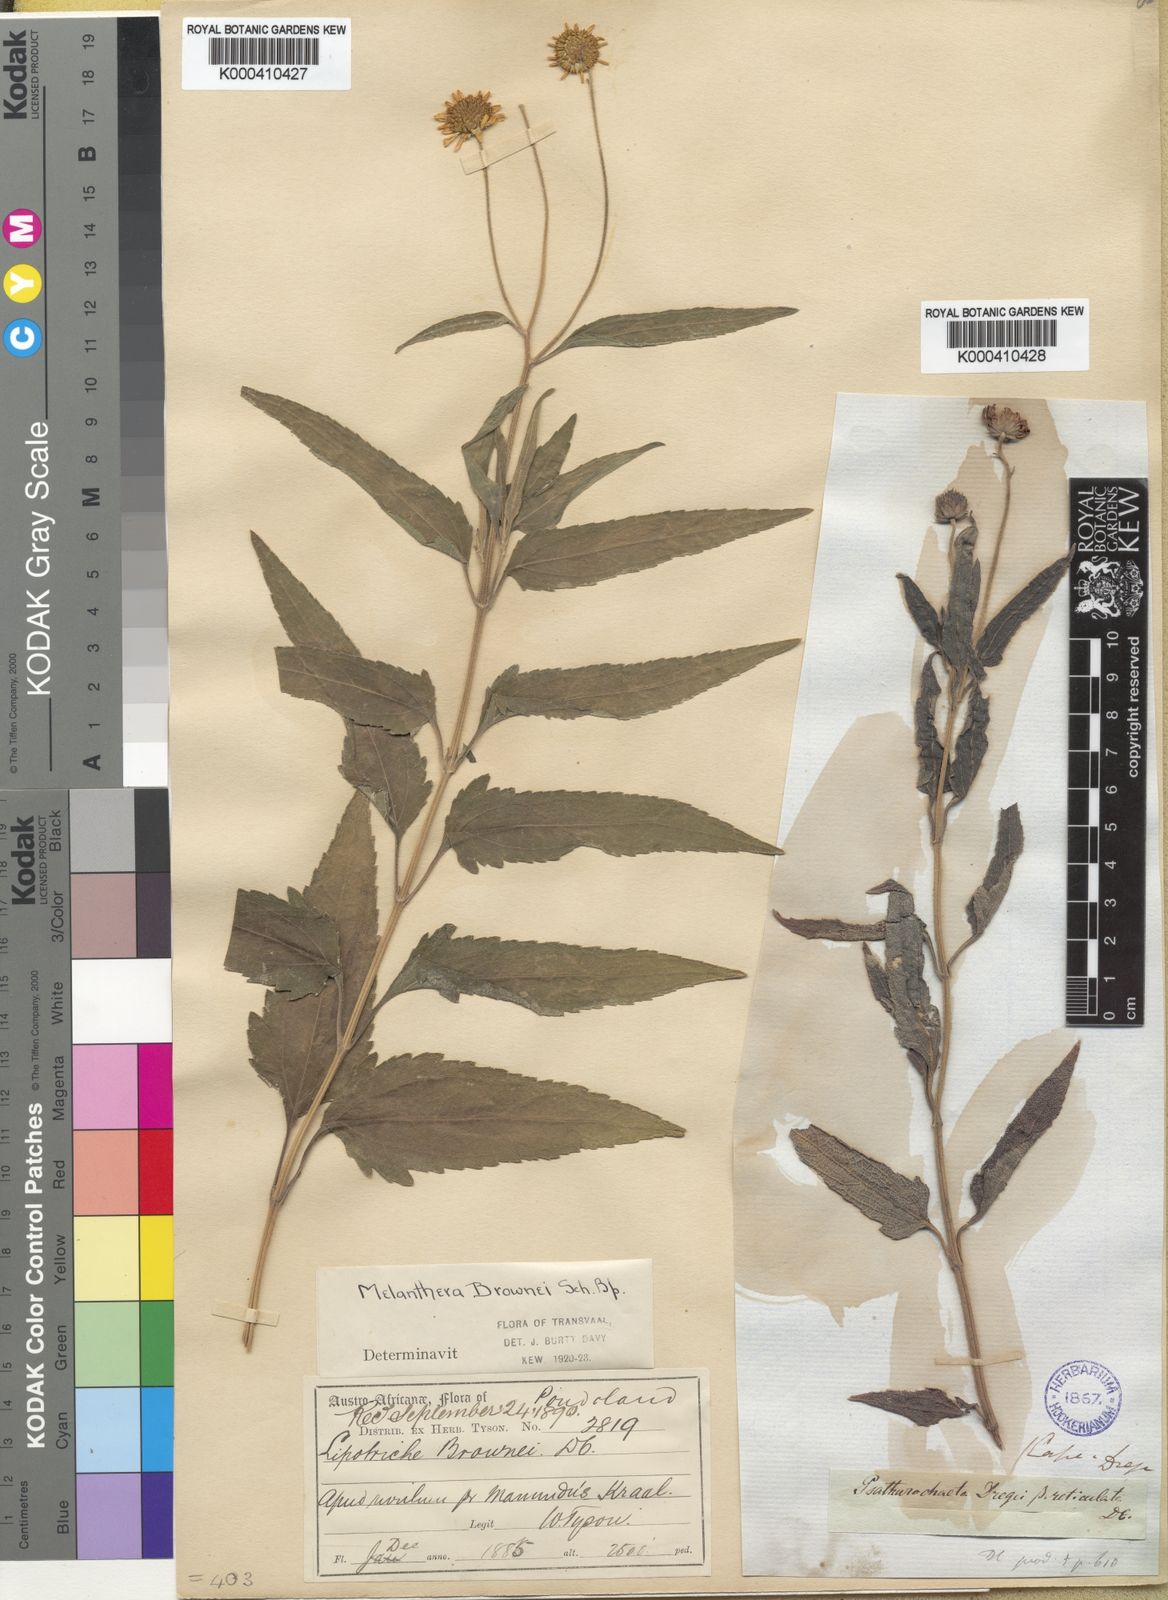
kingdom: Plantae
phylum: Tracheophyta
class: Magnoliopsida
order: Asterales
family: Asteraceae
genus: Melanthera
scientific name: Melanthera
